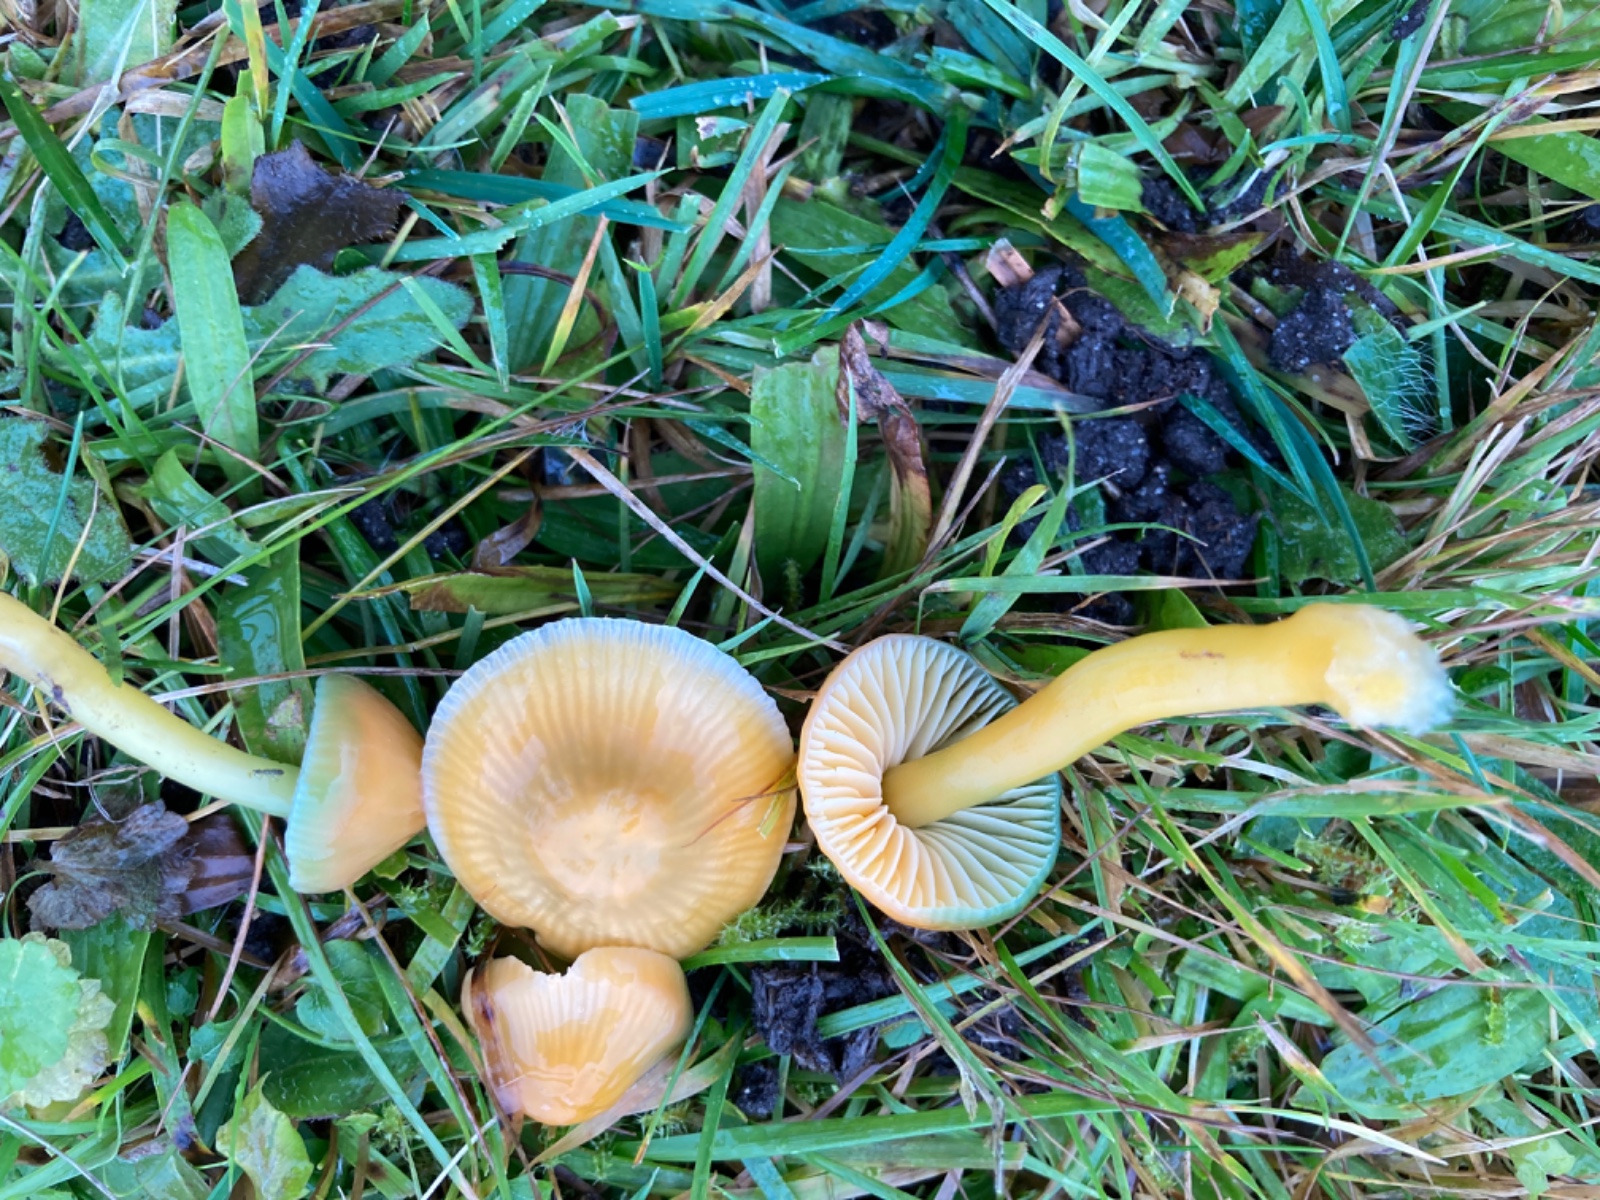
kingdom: Fungi
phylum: Basidiomycota
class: Agaricomycetes
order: Agaricales
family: Hygrophoraceae
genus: Gliophorus
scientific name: Gliophorus psittacinus
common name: papegøje-vokshat
